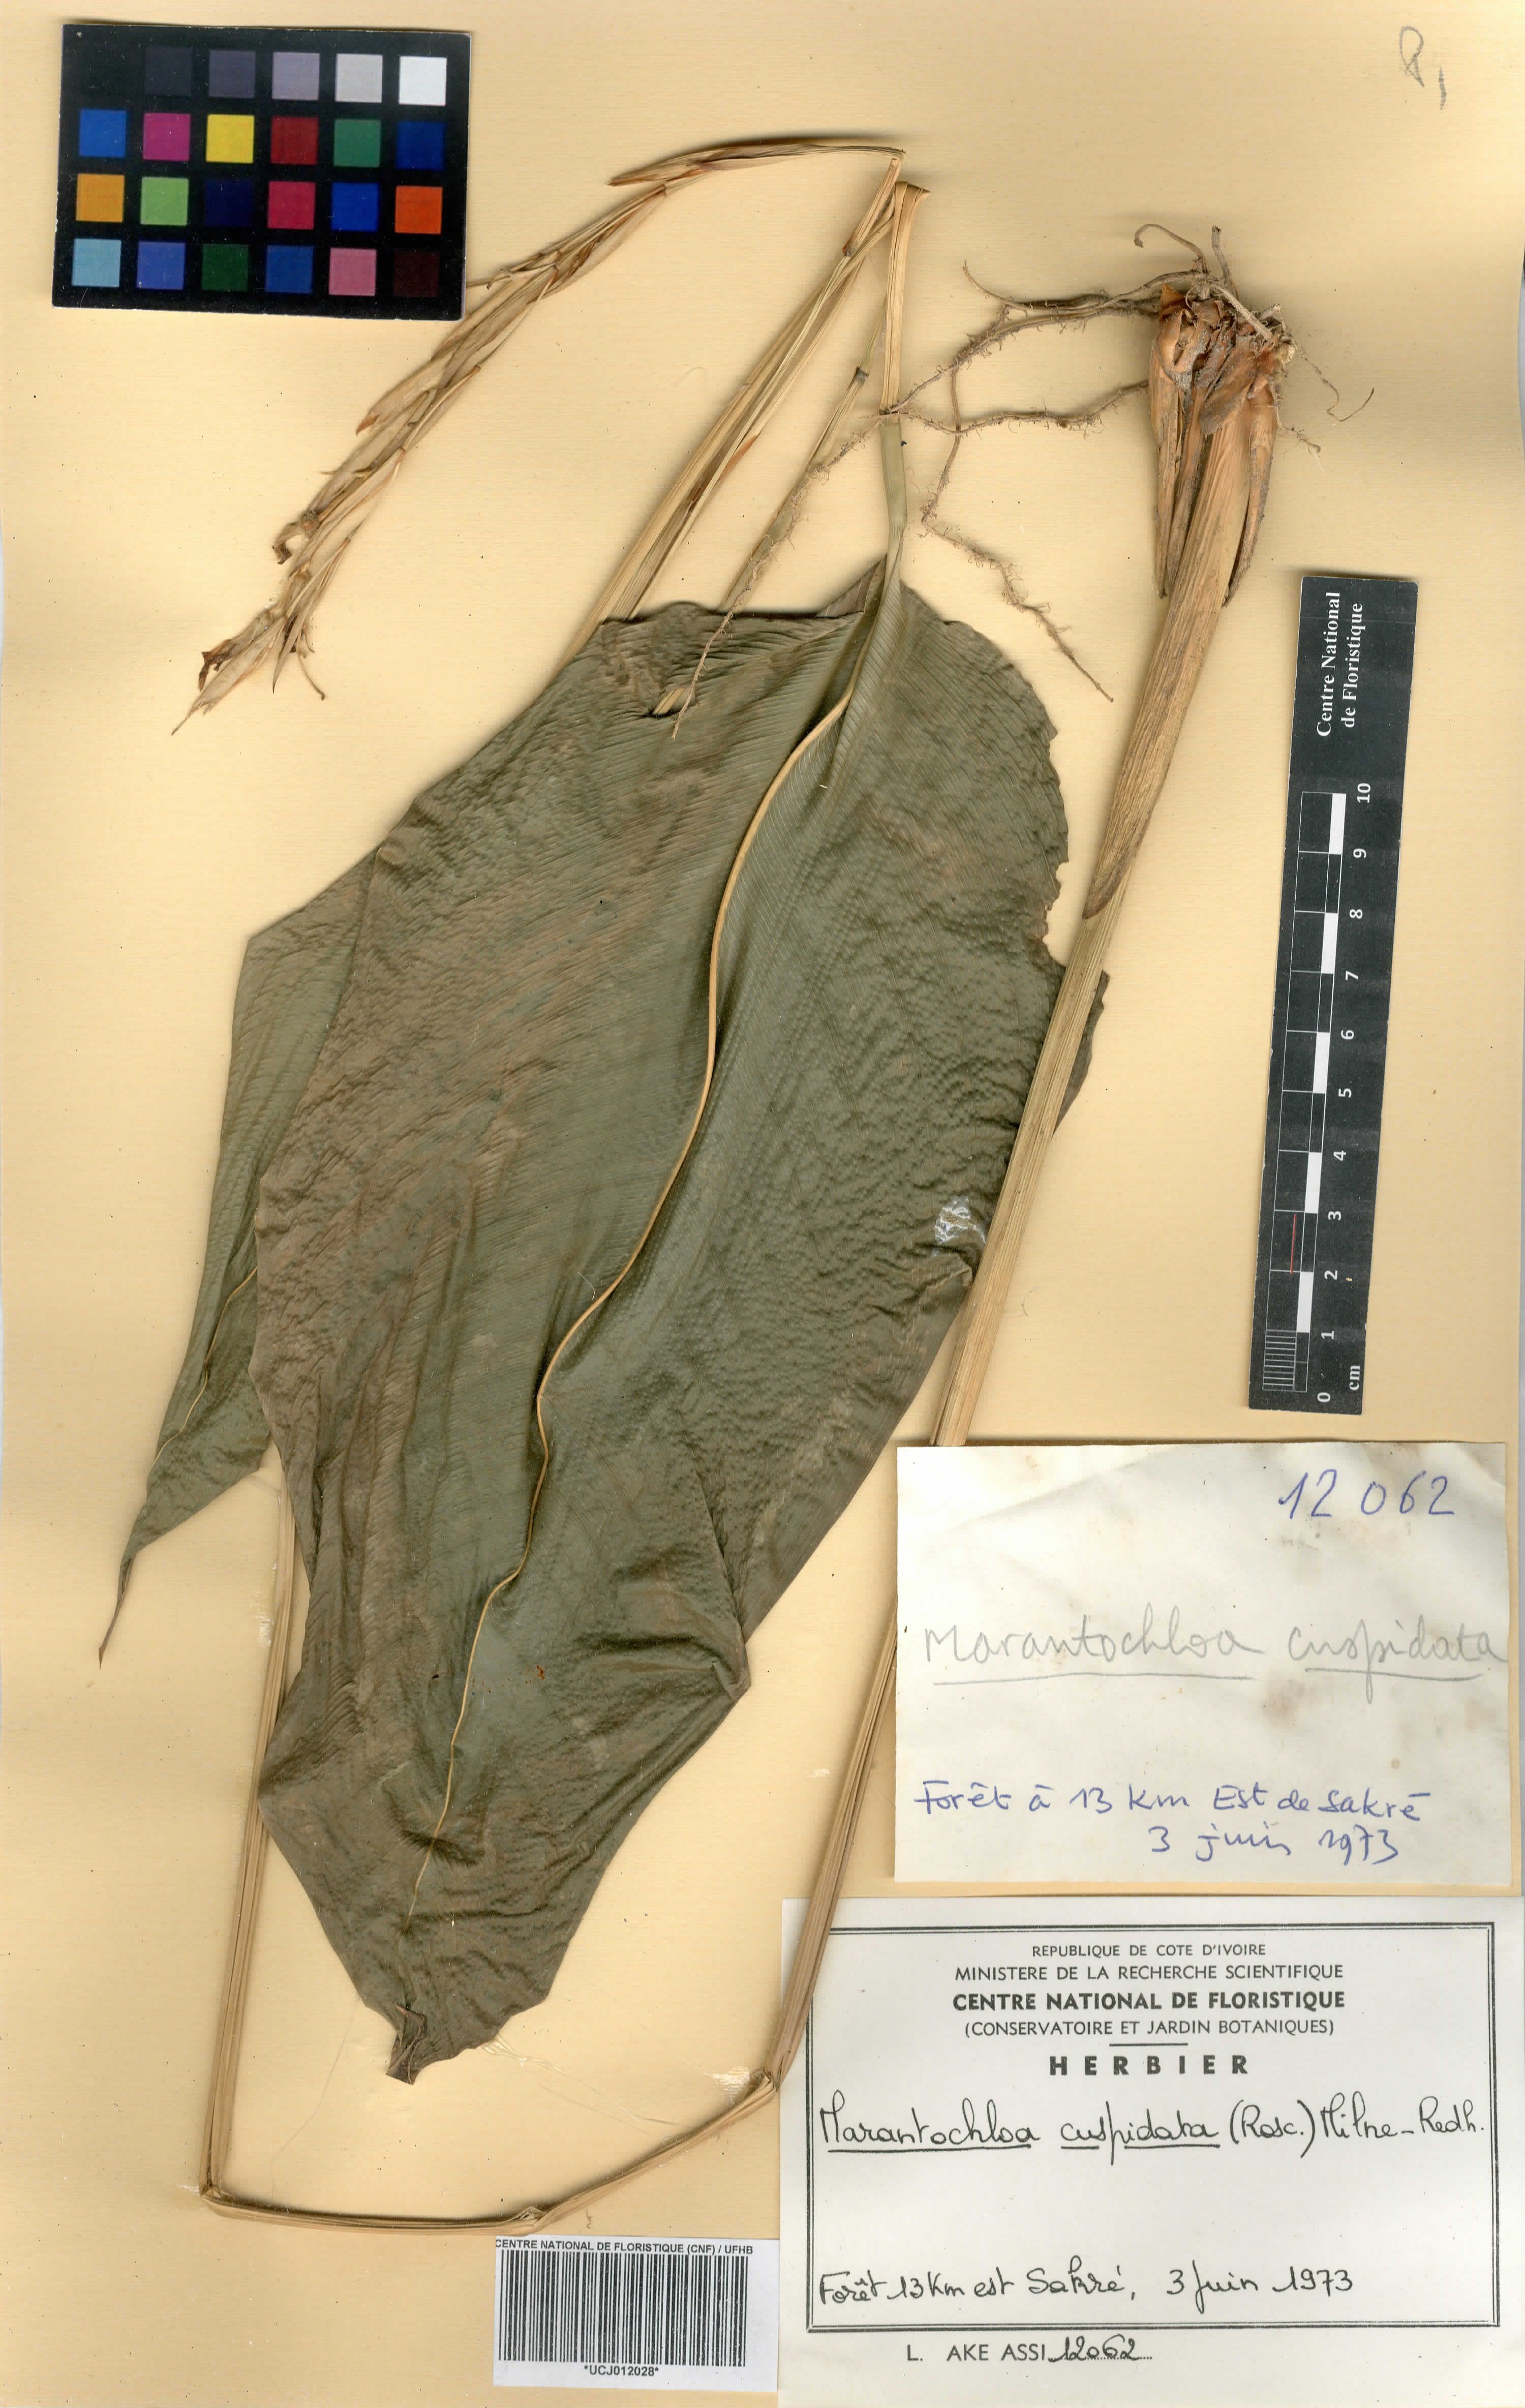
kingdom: Plantae
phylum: Tracheophyta
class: Liliopsida
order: Zingiberales
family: Marantaceae
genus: Marantochloa
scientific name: Marantochloa cuspidata
